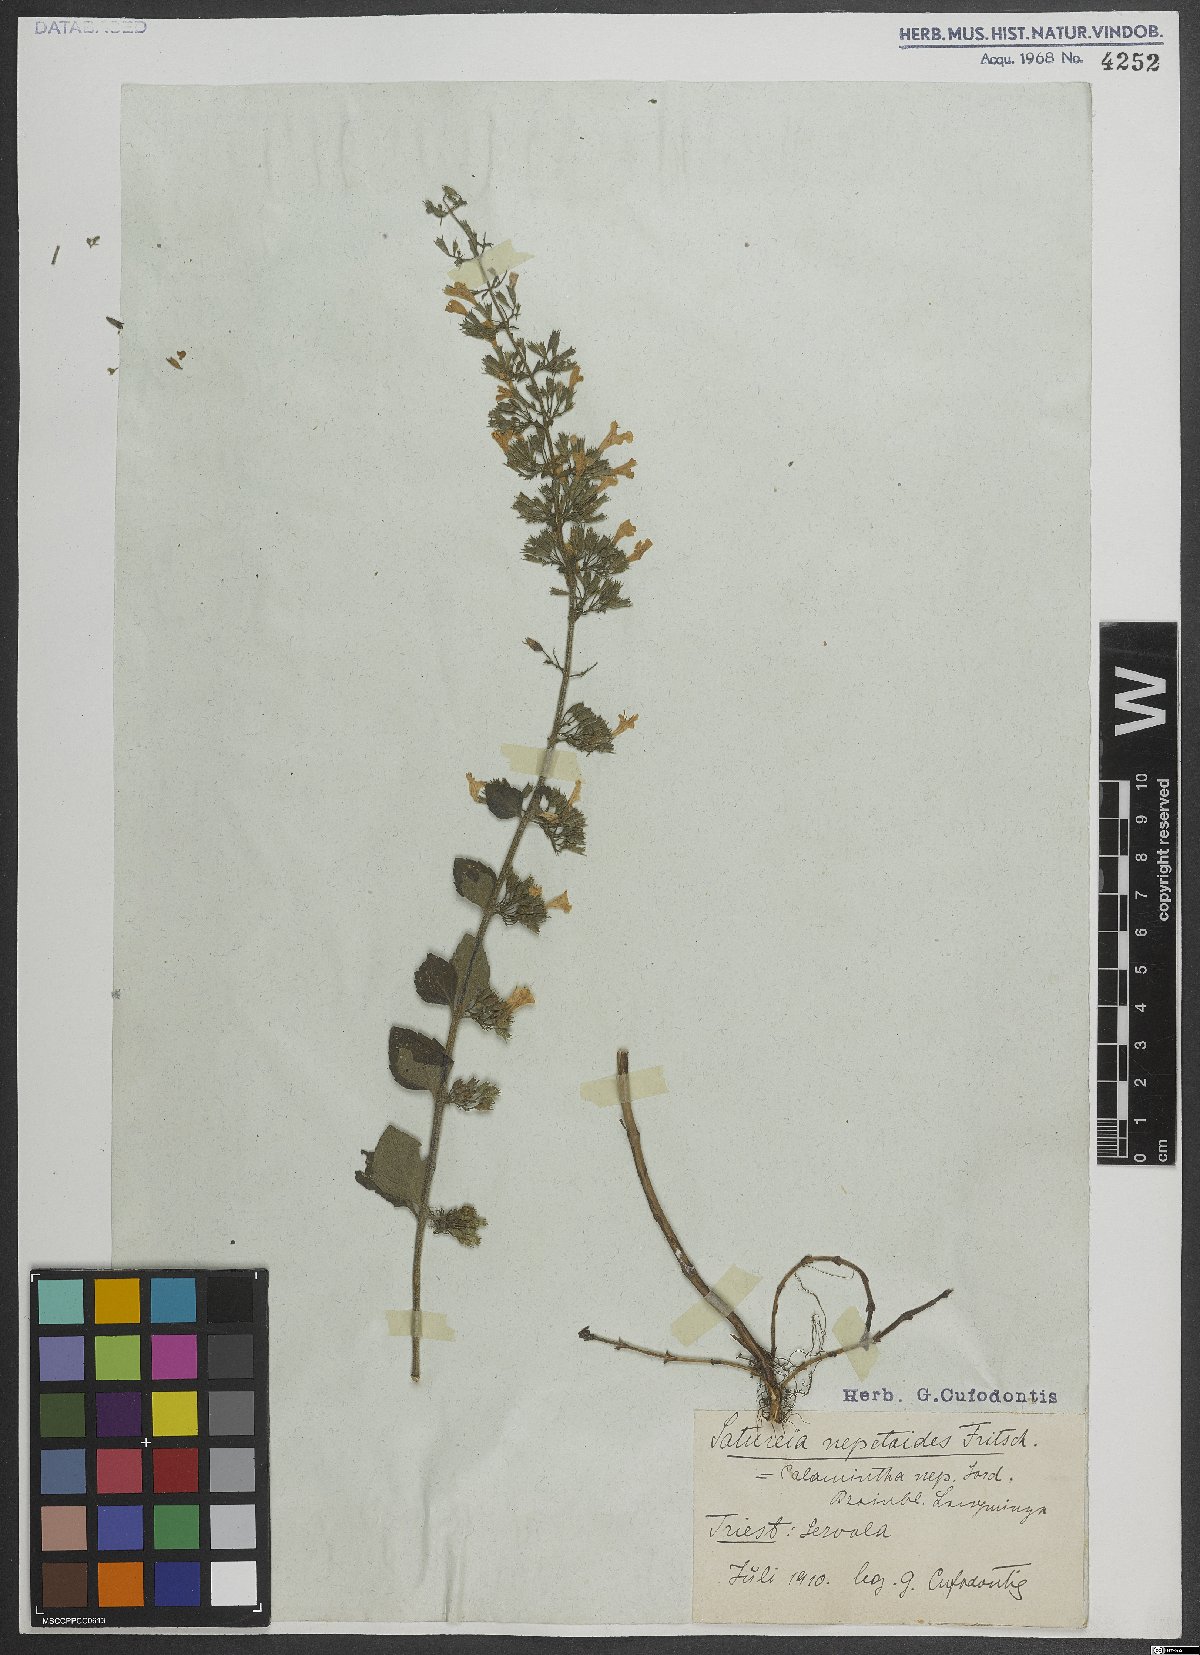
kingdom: Plantae
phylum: Tracheophyta
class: Magnoliopsida
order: Lamiales
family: Lamiaceae
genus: Clinopodium
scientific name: Clinopodium nepeta
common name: Lesser calamint
